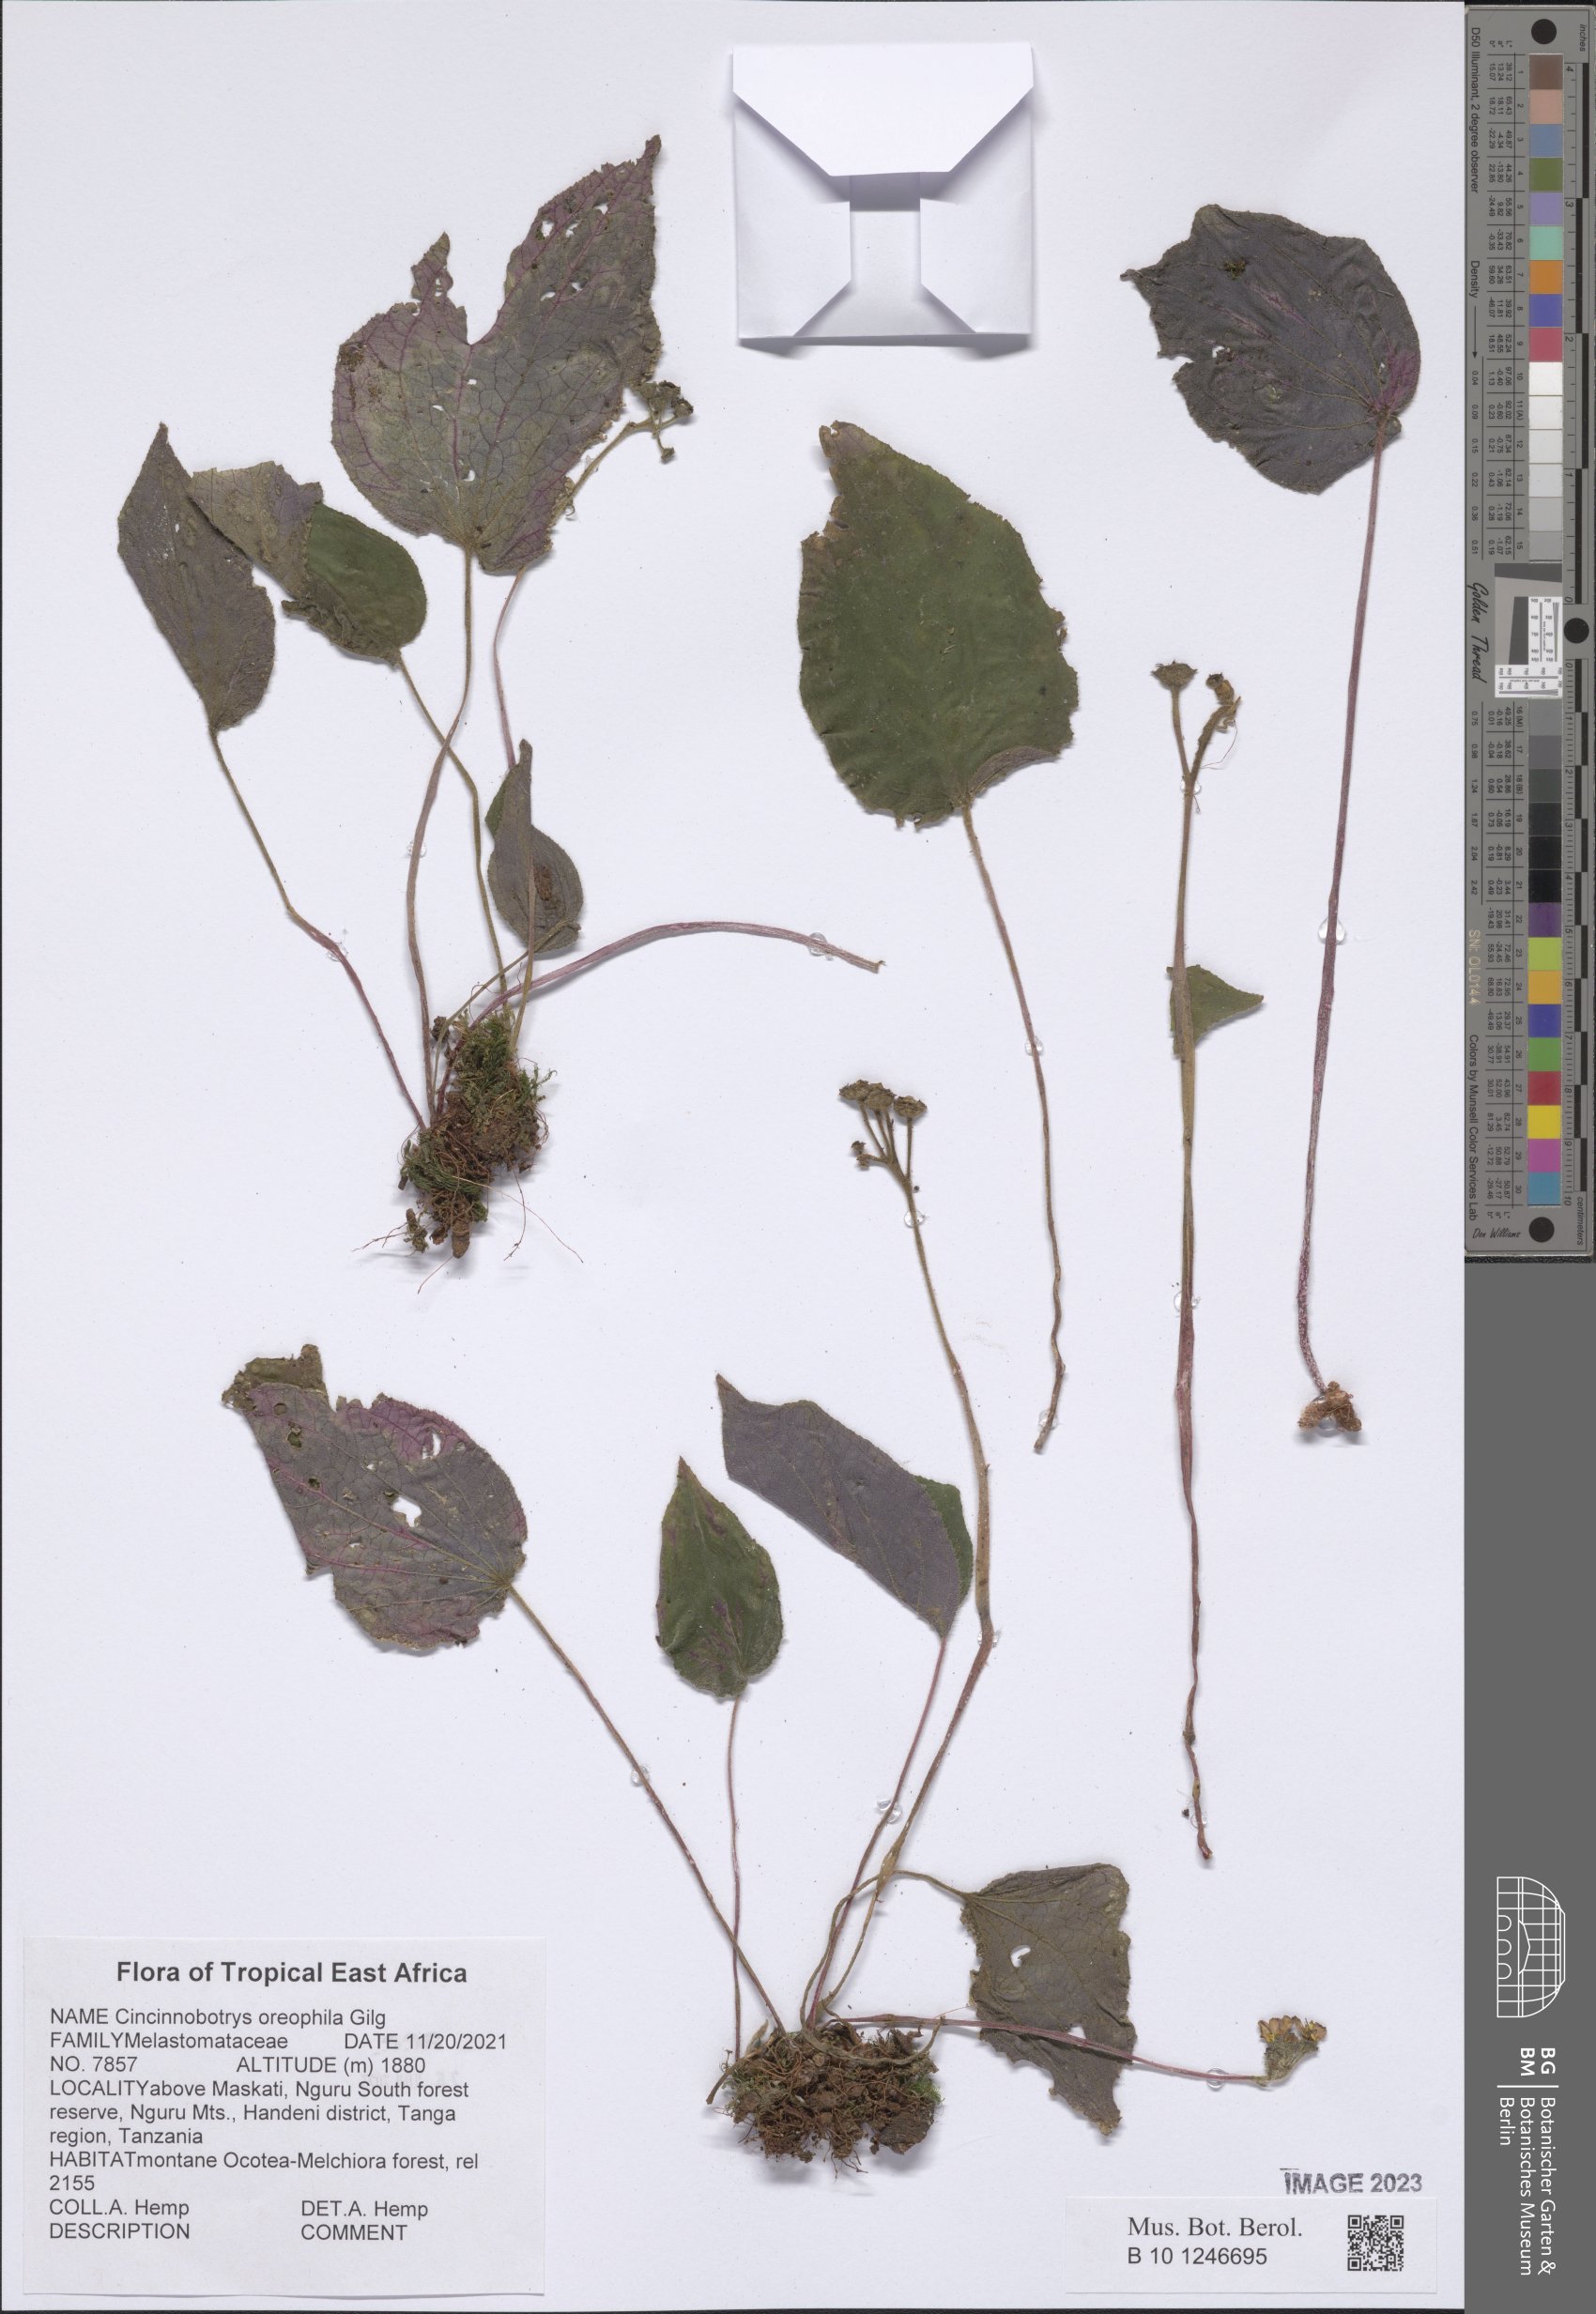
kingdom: Plantae
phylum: Tracheophyta
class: Magnoliopsida
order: Myrtales
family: Melastomataceae
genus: Cincinnobotrys
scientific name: Cincinnobotrys oreophila
